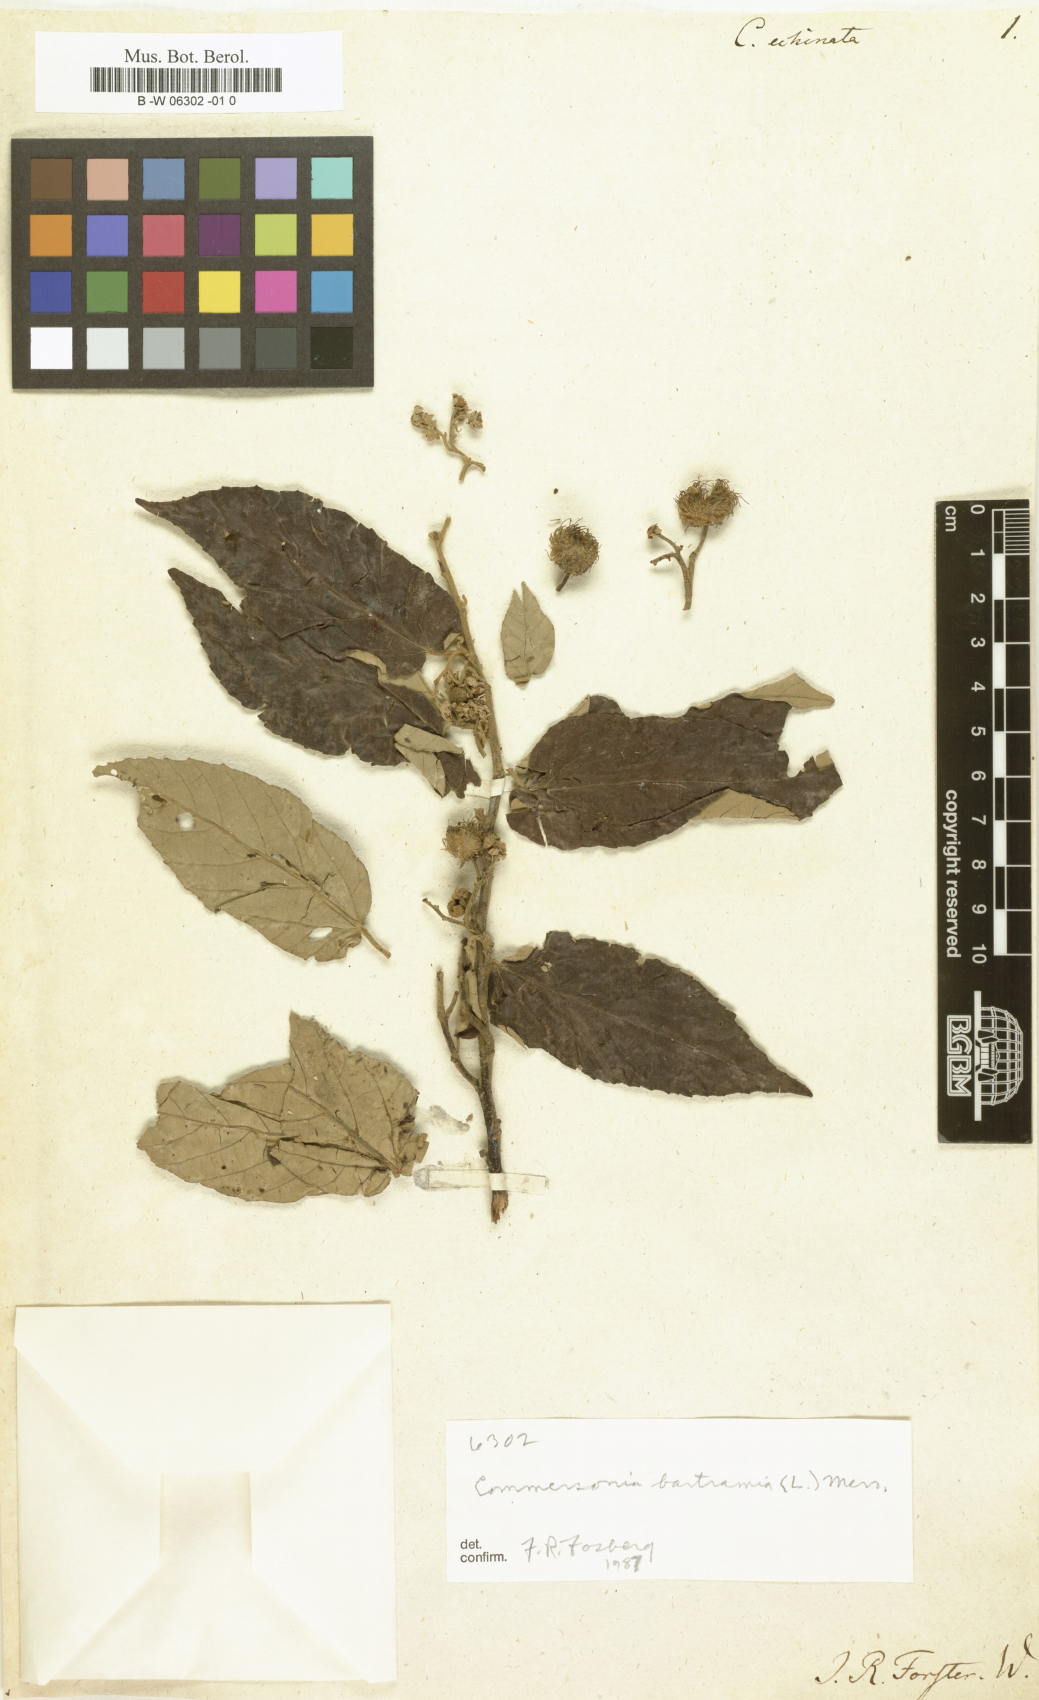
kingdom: Plantae
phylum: Tracheophyta
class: Magnoliopsida
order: Malvales
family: Malvaceae
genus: Commersonia
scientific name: Commersonia bartramia
